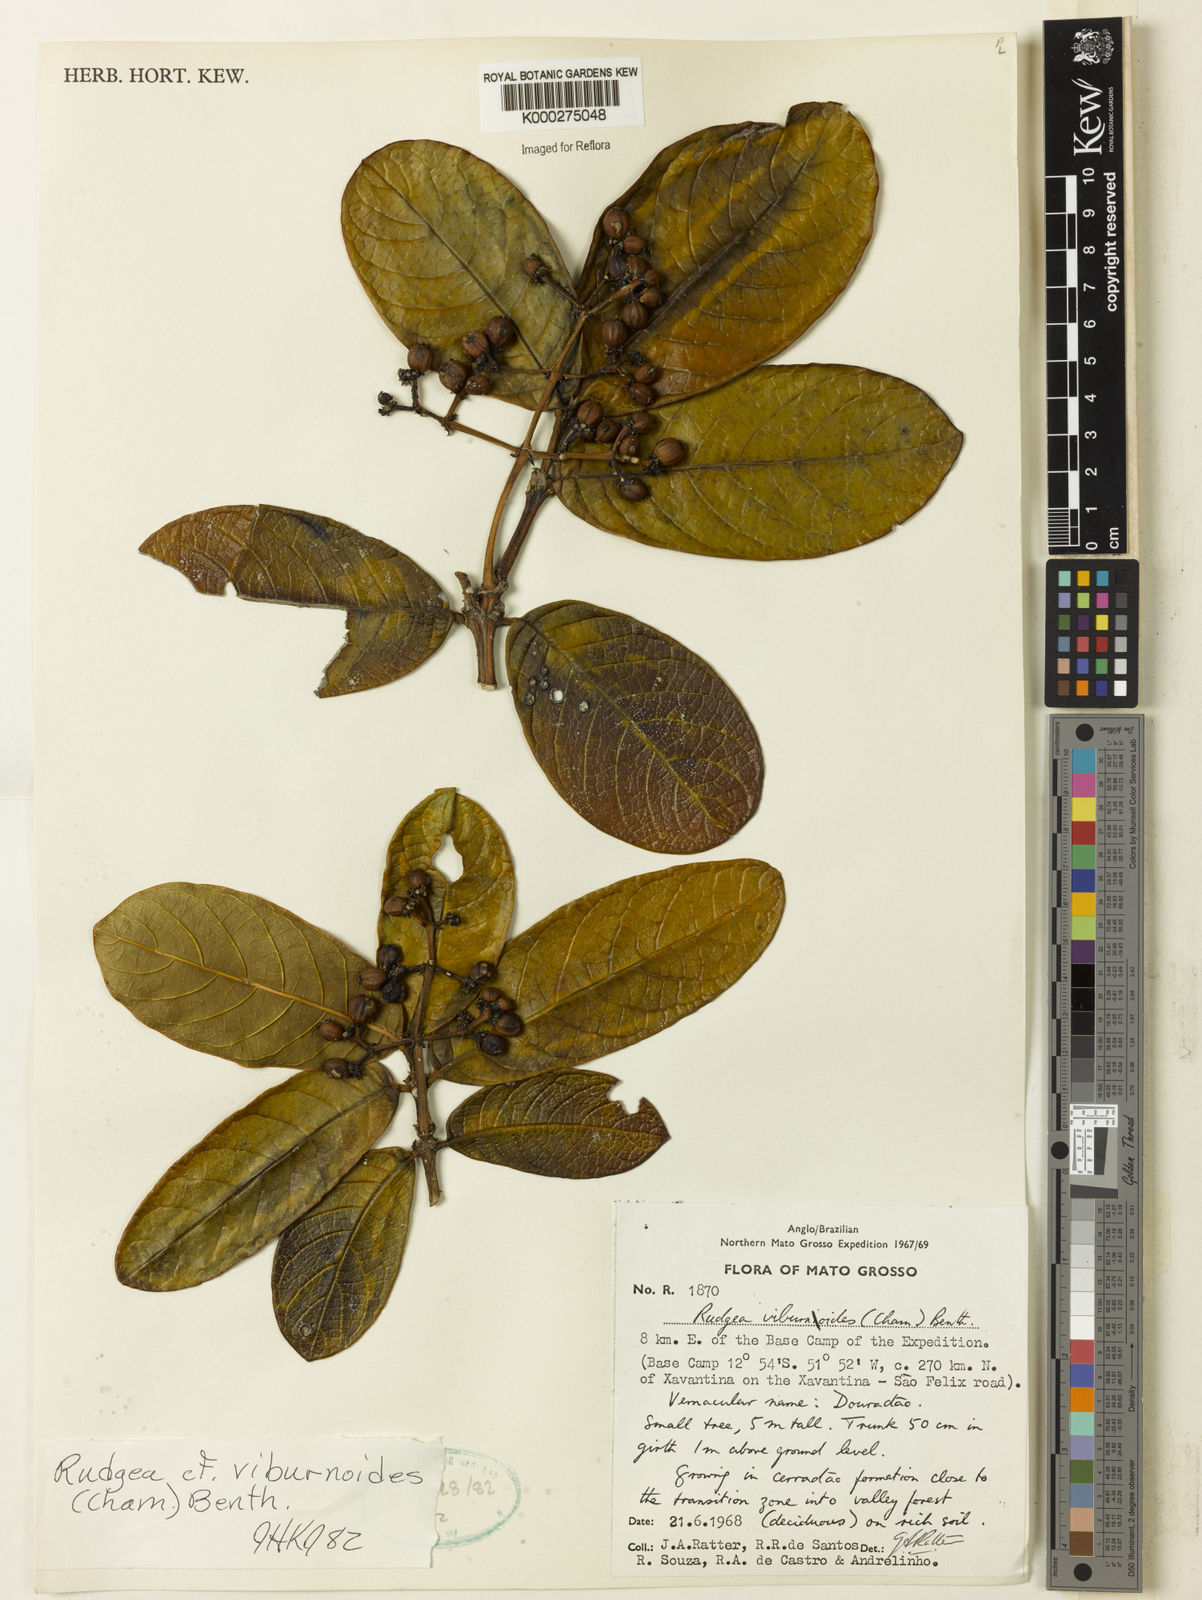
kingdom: Plantae
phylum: Tracheophyta
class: Magnoliopsida
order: Gentianales
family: Rubiaceae
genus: Rudgea
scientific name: Rudgea viburnoides
